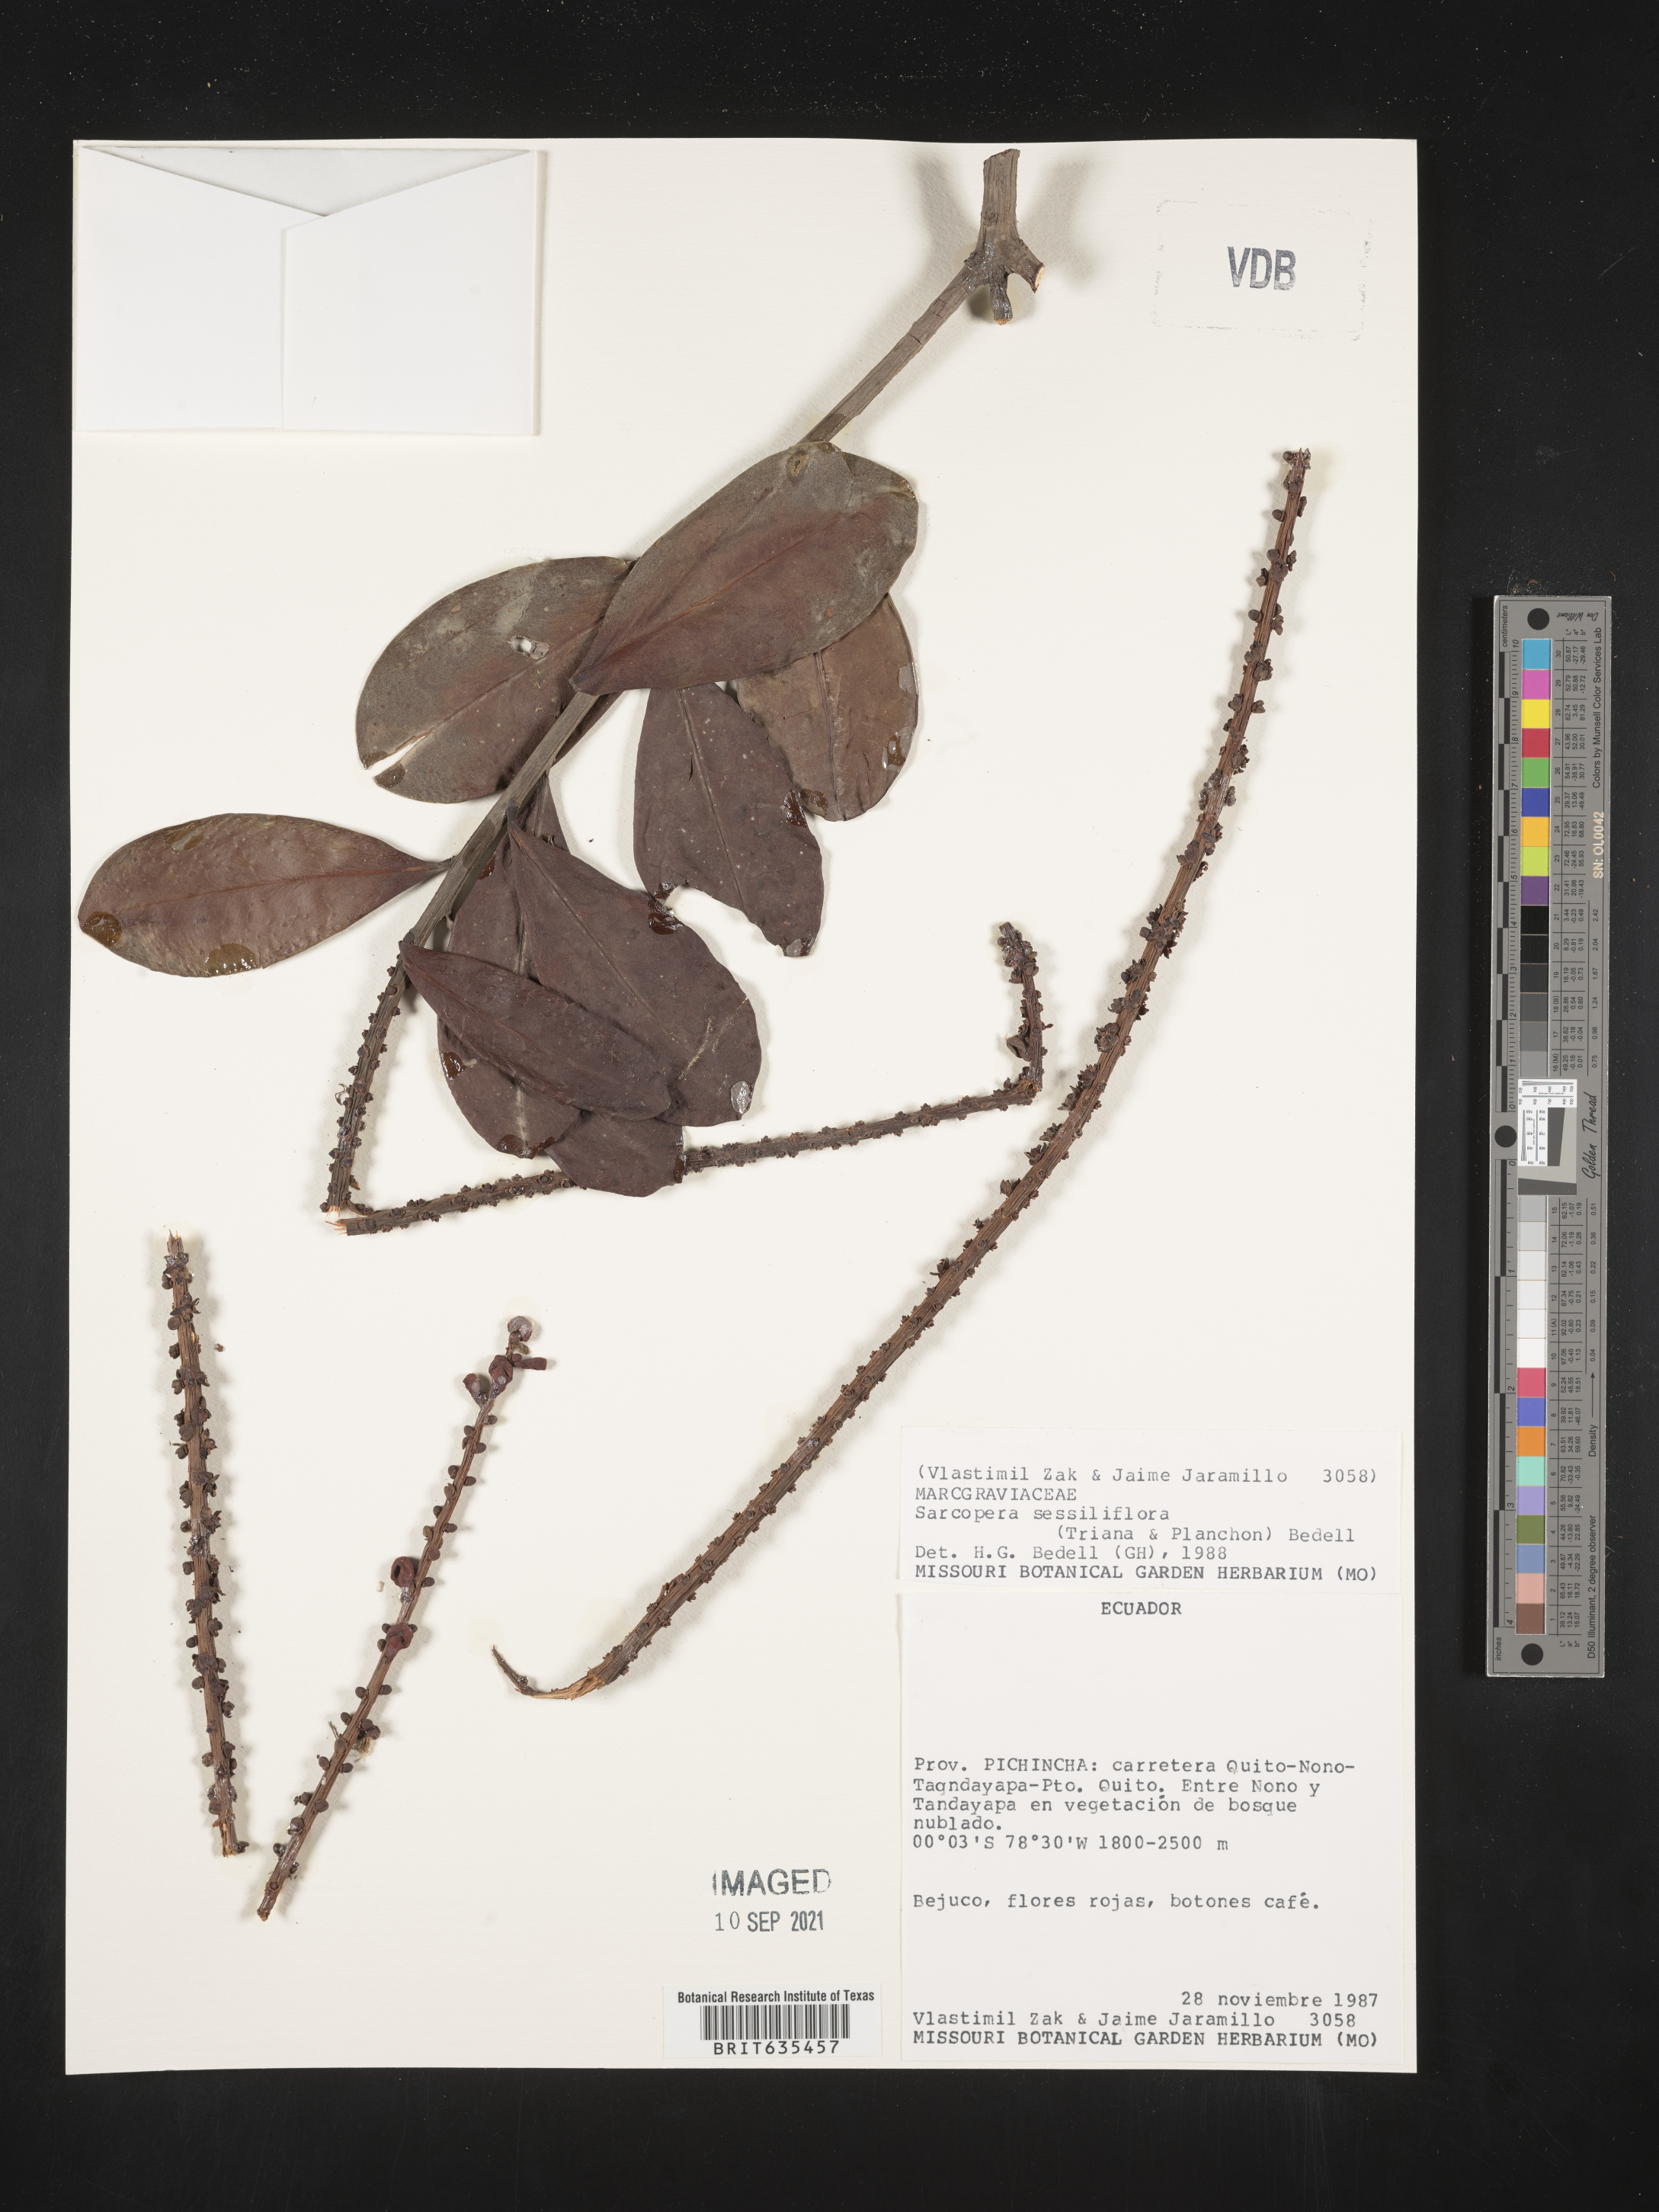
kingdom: Plantae
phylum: Tracheophyta
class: Magnoliopsida
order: Ericales
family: Marcgraviaceae
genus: Sarcopera
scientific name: Sarcopera
